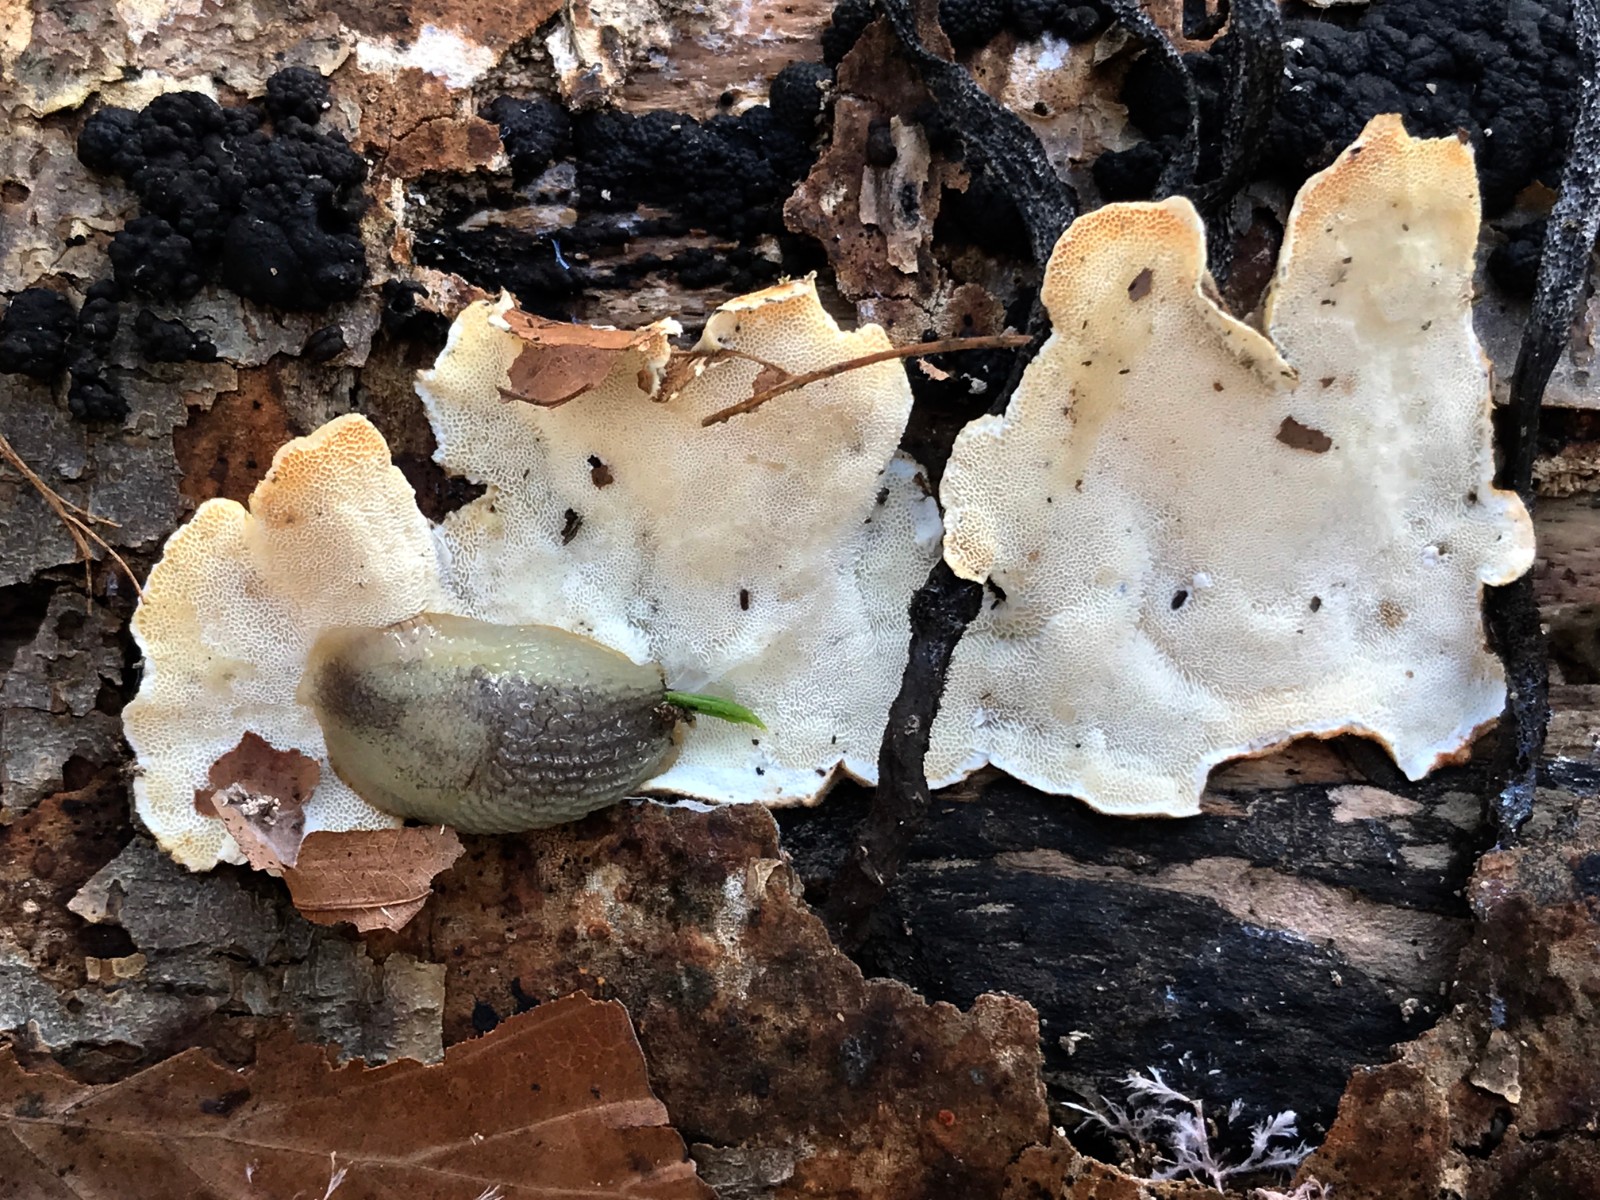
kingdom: Fungi
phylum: Basidiomycota
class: Agaricomycetes
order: Polyporales
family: Polyporaceae
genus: Trametes
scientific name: Trametes versicolor
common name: broget læderporesvamp
